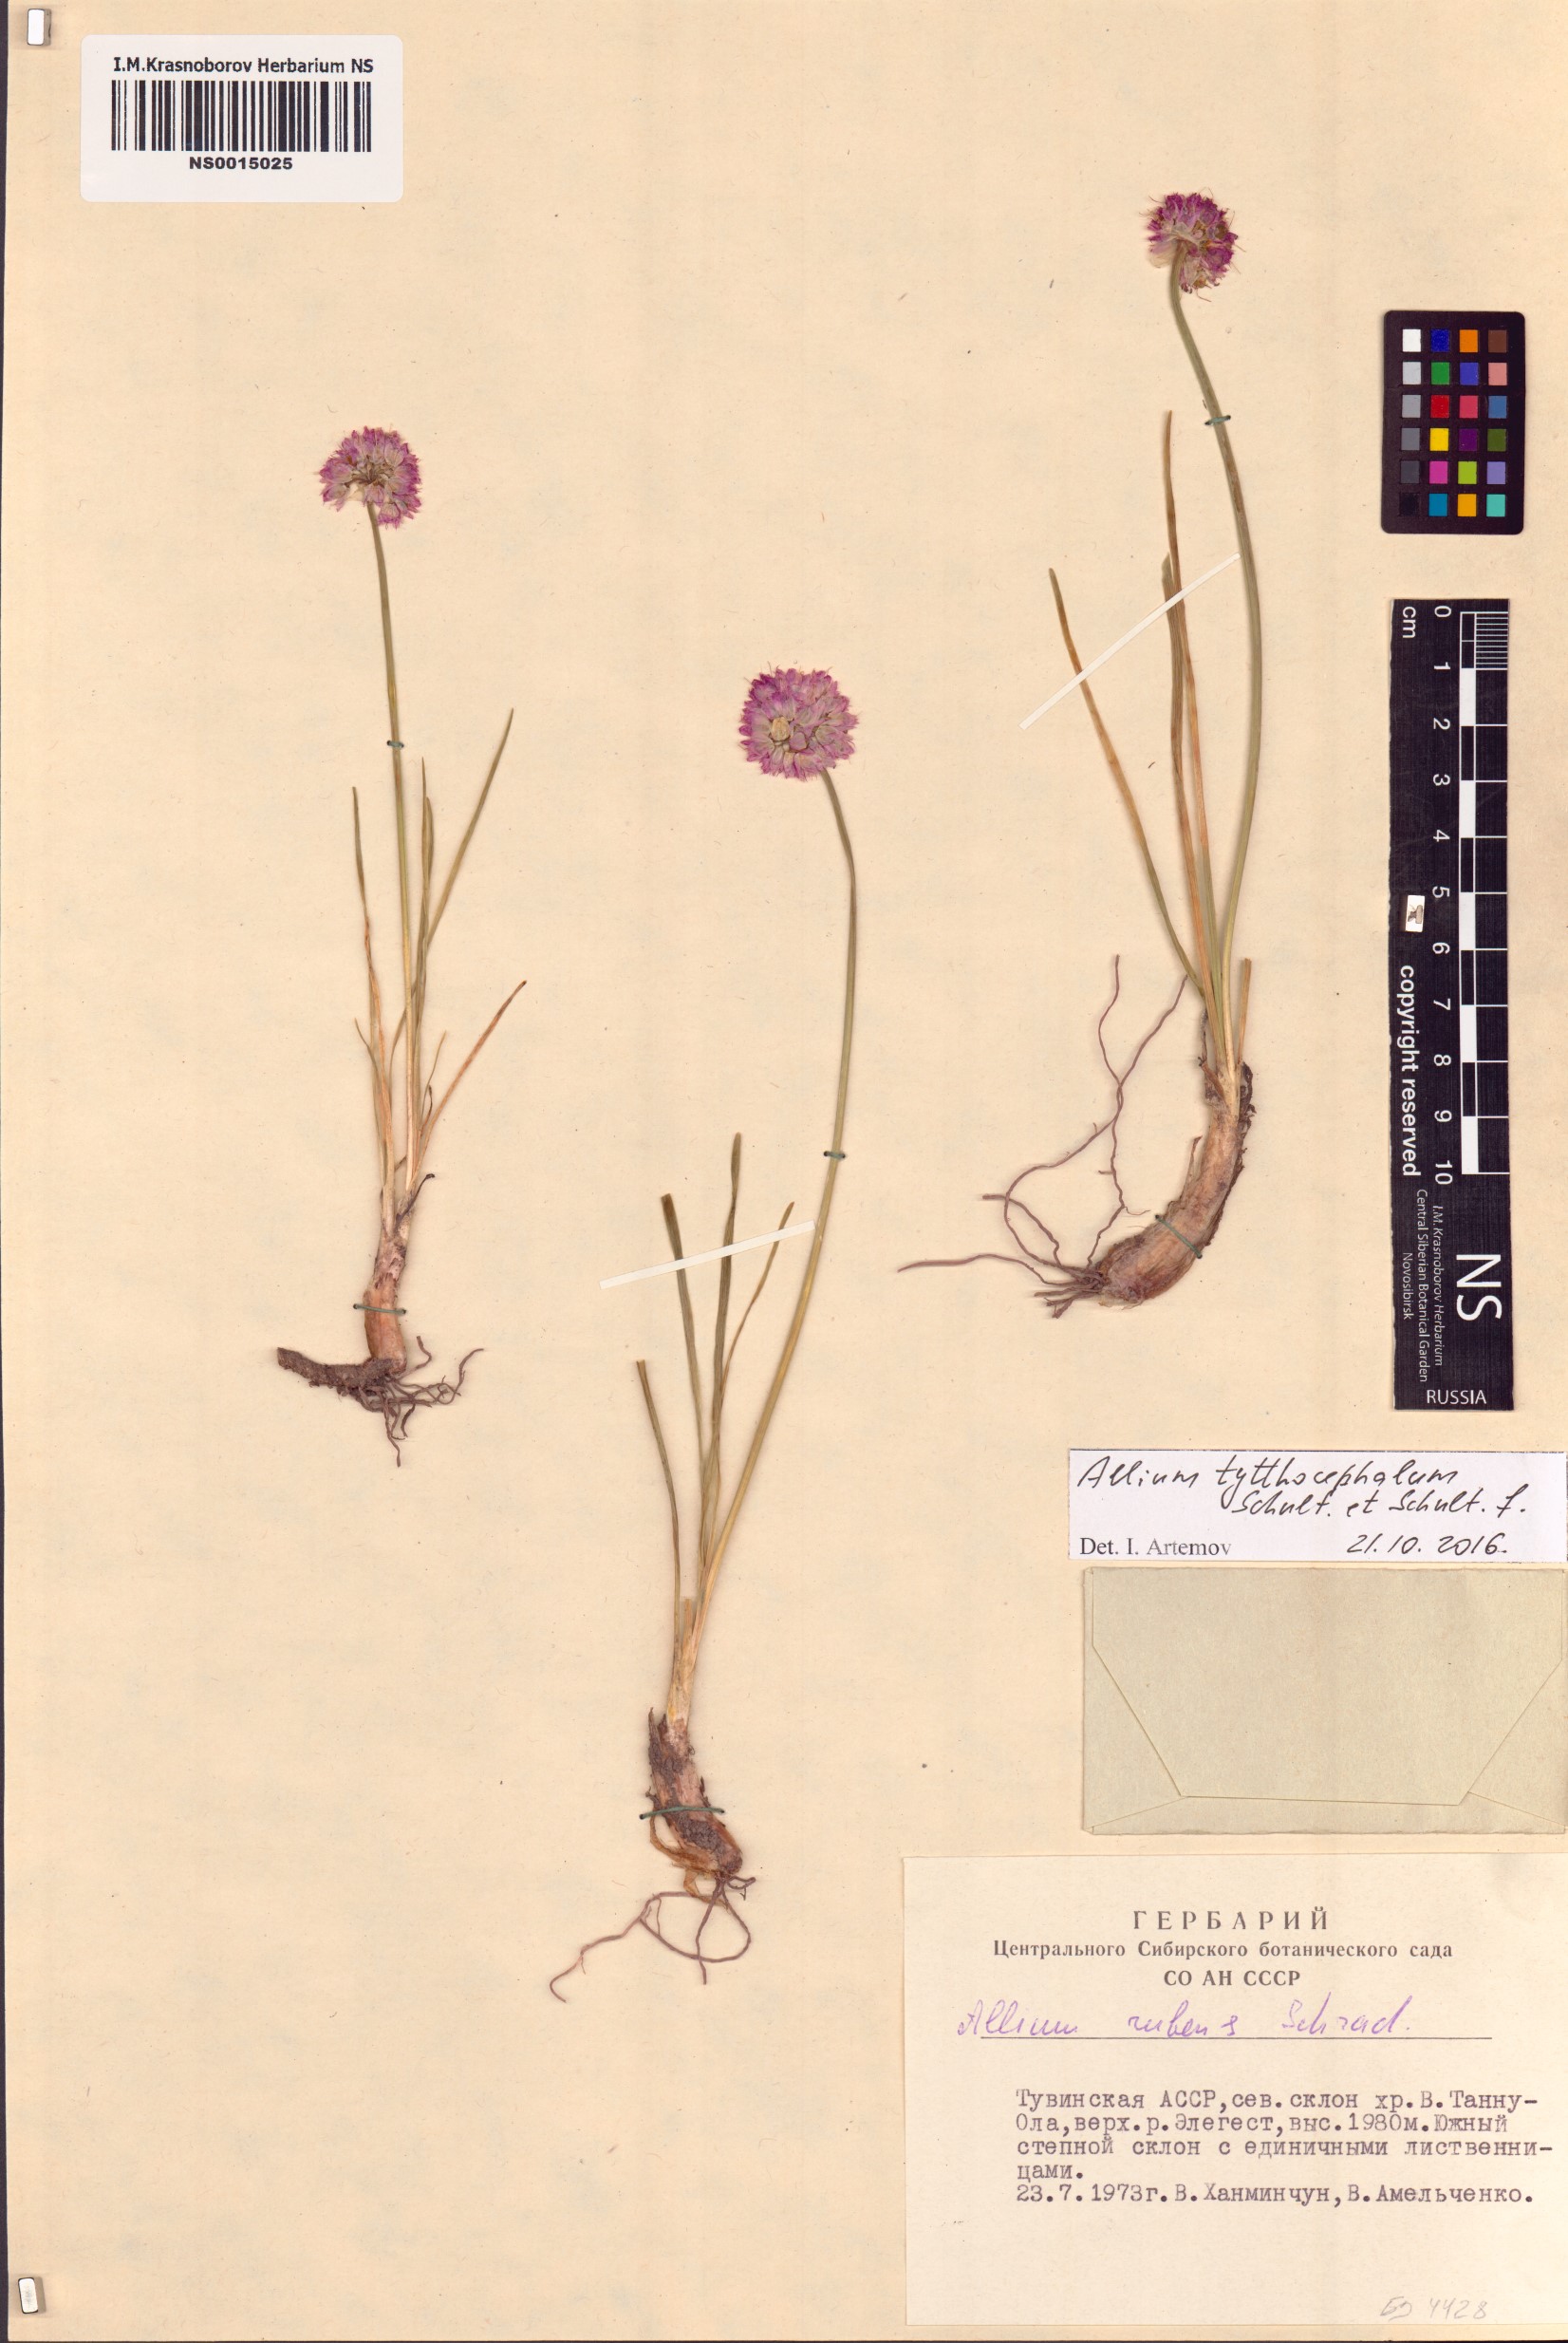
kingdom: Plantae
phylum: Tracheophyta
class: Liliopsida
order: Asparagales
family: Amaryllidaceae
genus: Allium
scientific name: Allium tytthocephalum
